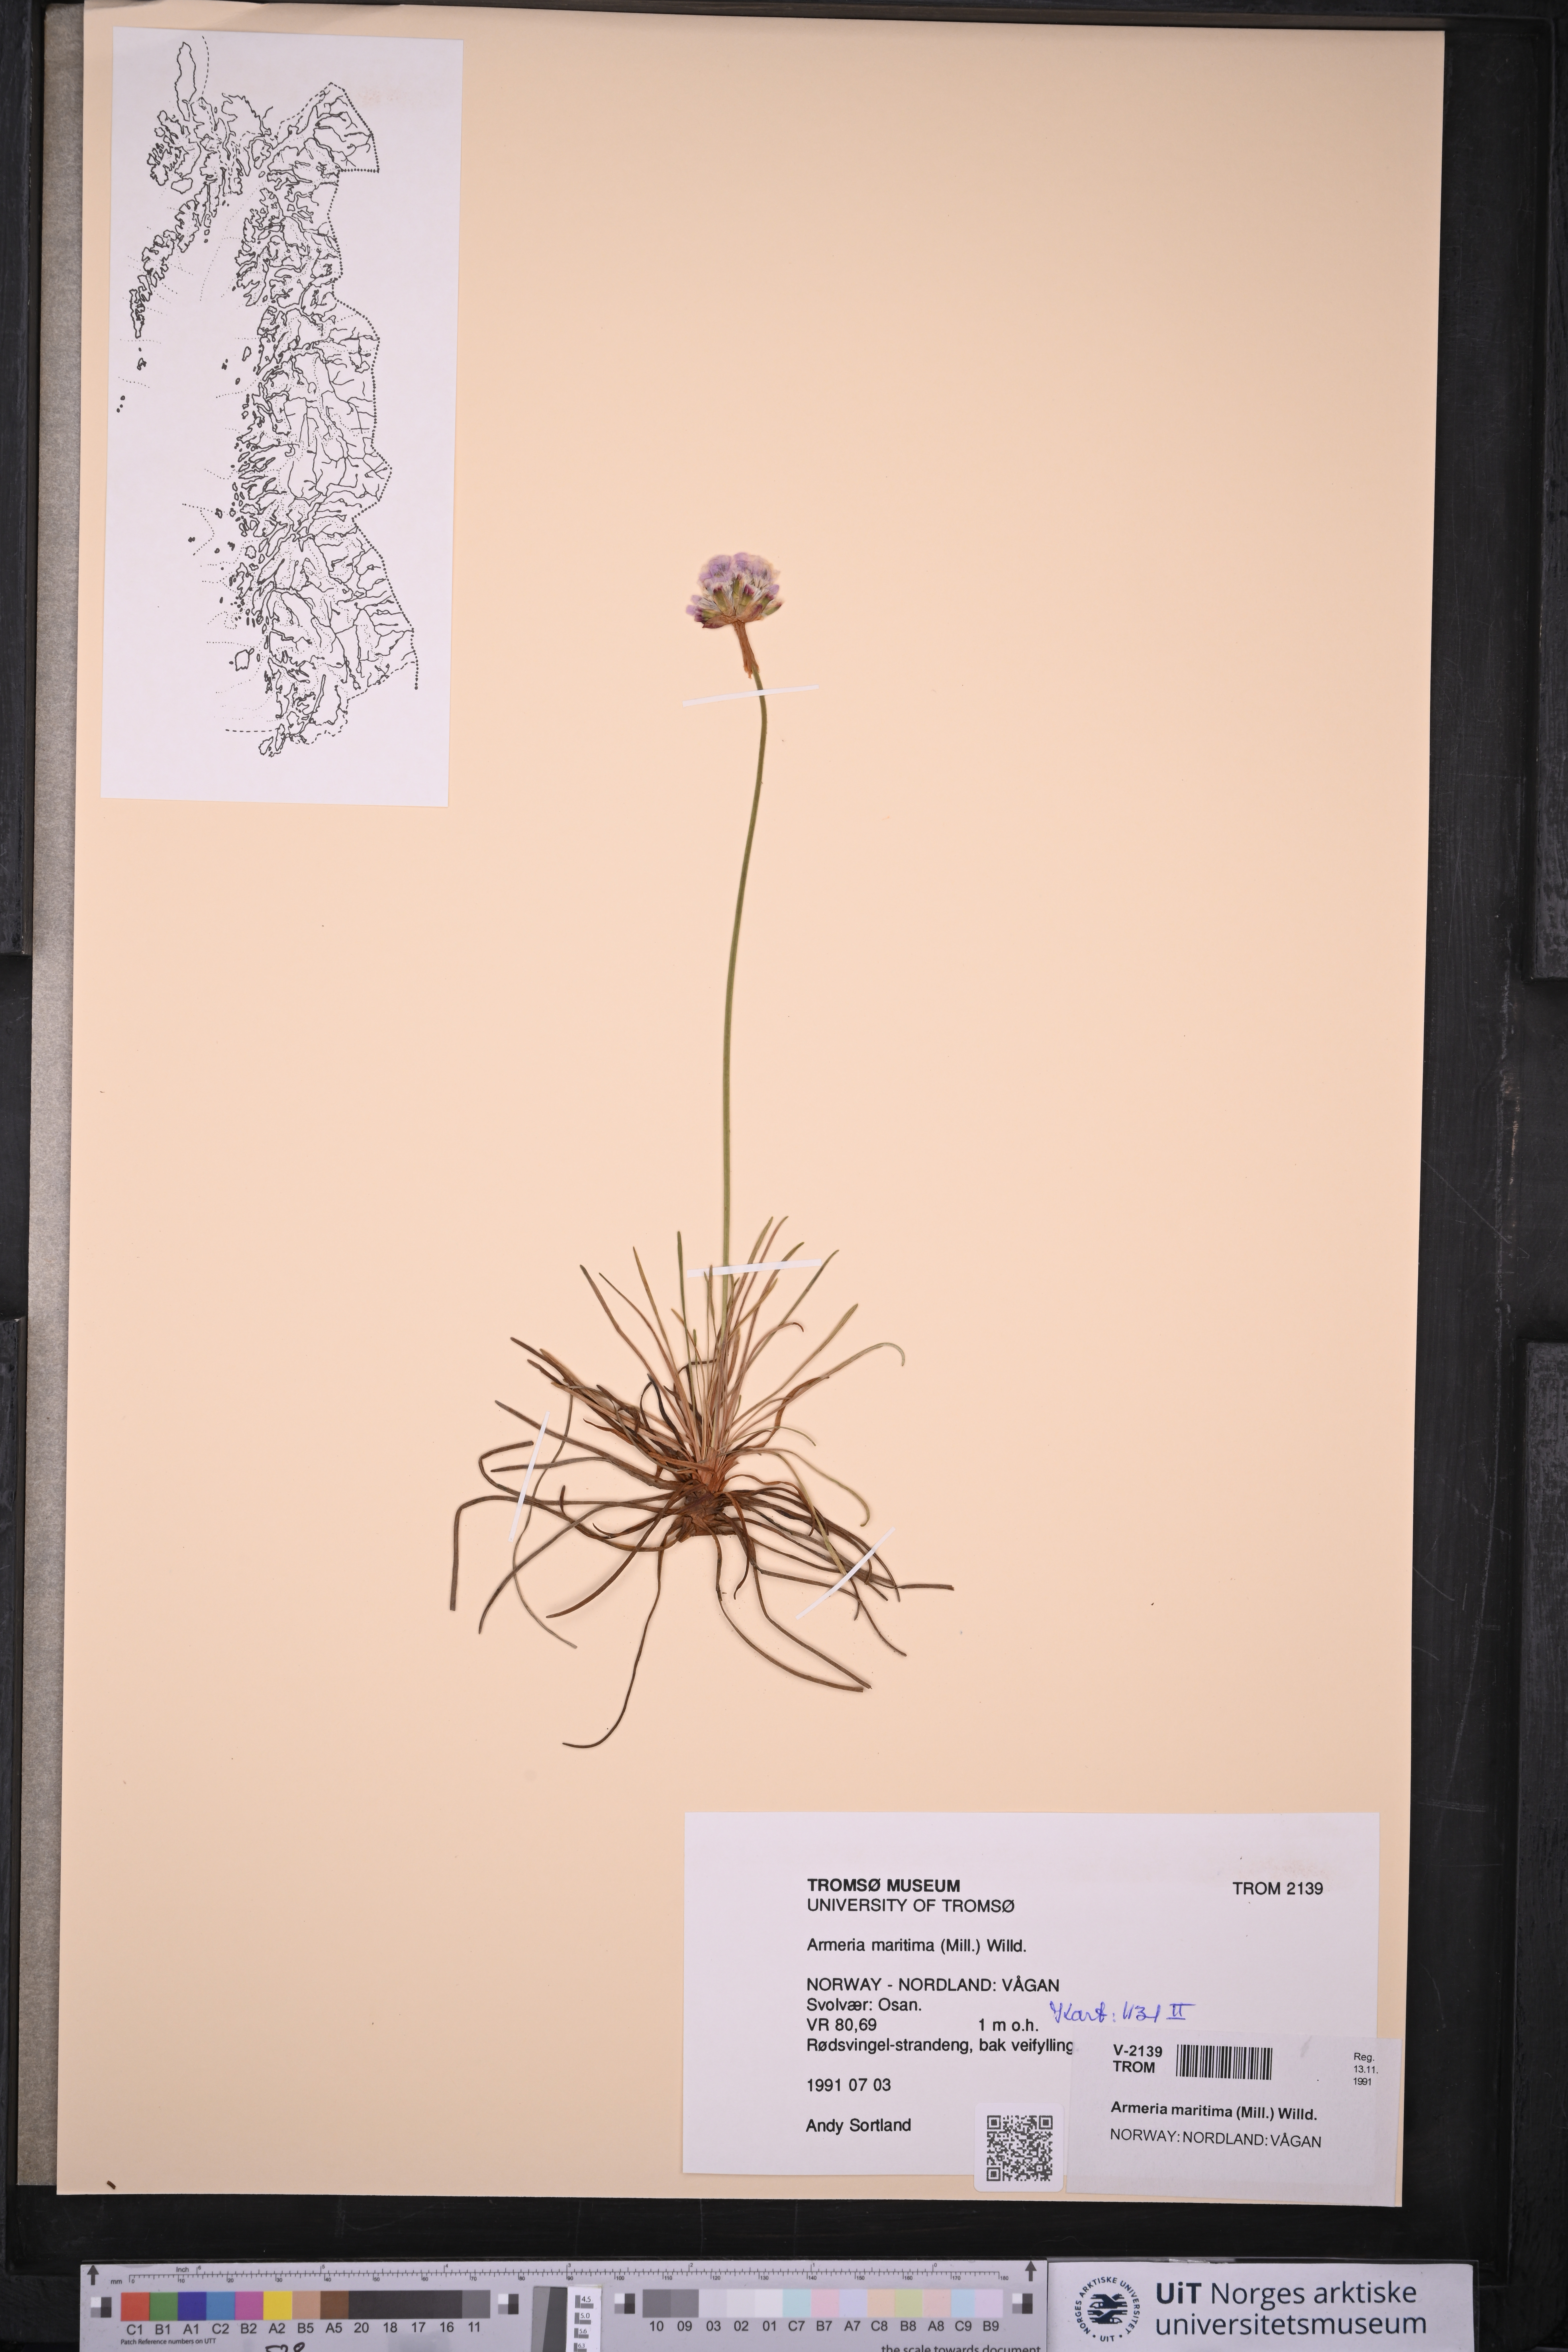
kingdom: Plantae
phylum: Tracheophyta
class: Magnoliopsida
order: Caryophyllales
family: Plumbaginaceae
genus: Armeria
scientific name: Armeria maritima
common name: Thrift
